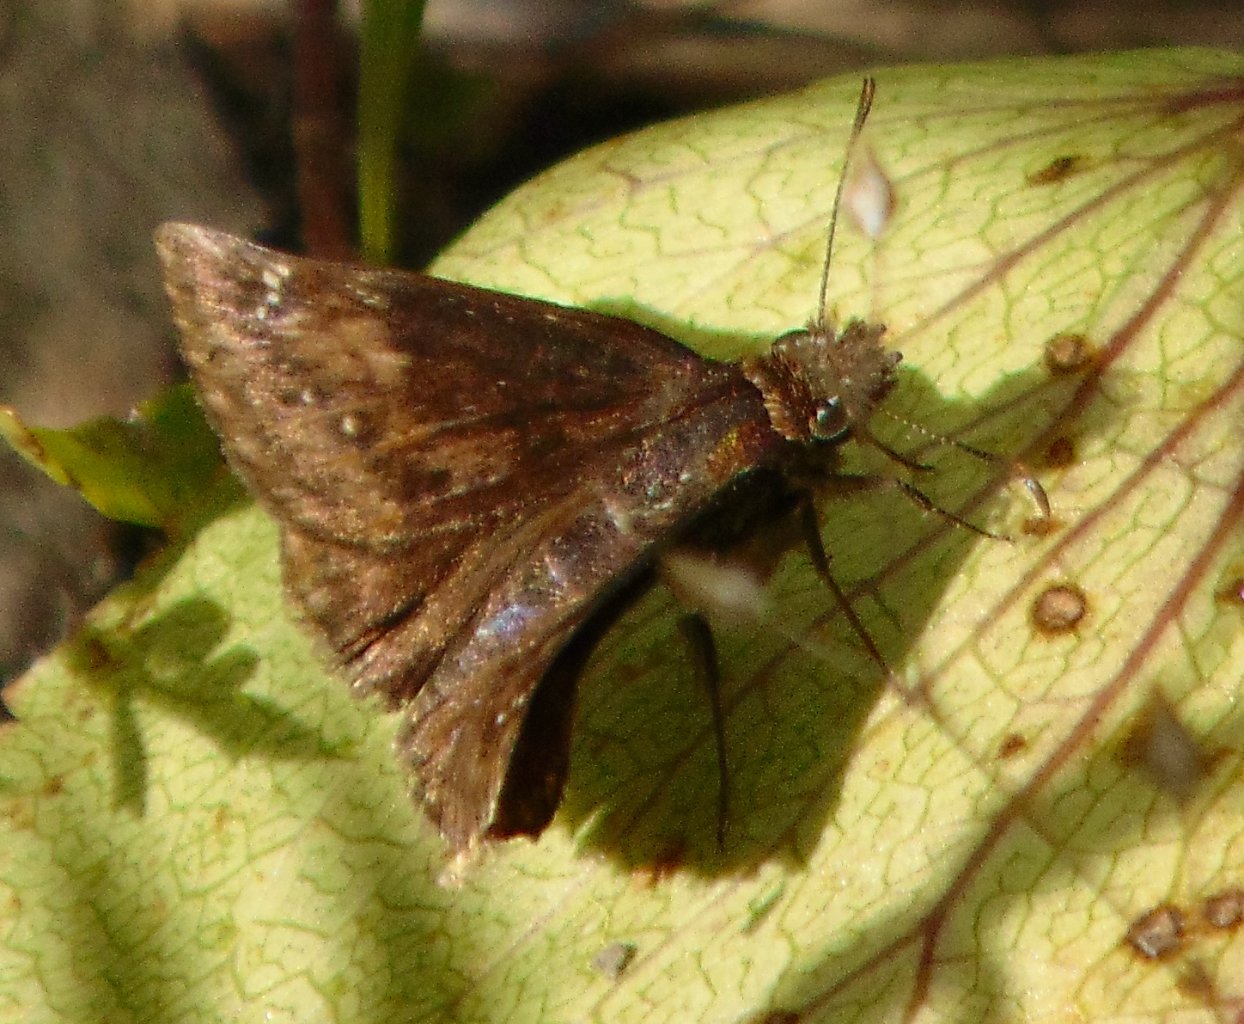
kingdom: Animalia
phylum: Arthropoda
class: Insecta
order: Lepidoptera
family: Hesperiidae
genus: Gesta
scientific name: Gesta
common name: Wild Indigo Duskywing
